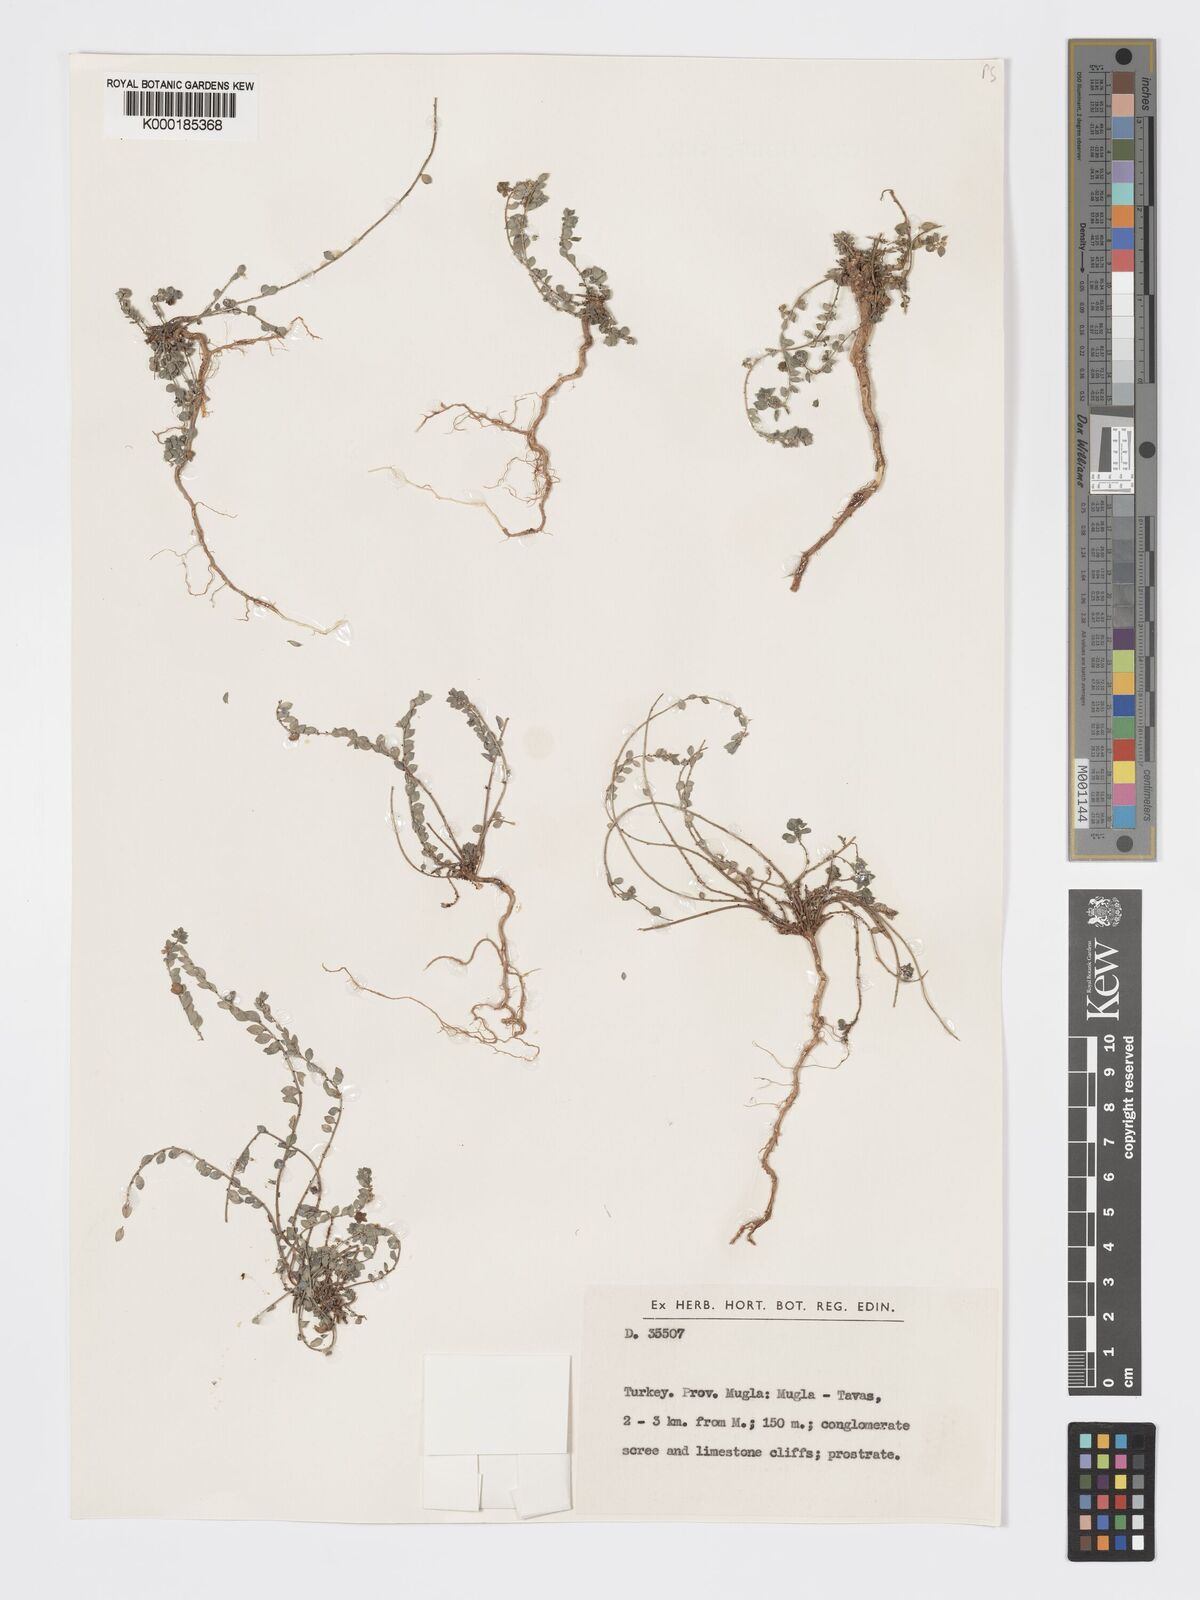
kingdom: Plantae
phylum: Tracheophyta
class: Magnoliopsida
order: Malpighiales
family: Phyllanthaceae
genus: Andrachne
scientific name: Andrachne telephioides
